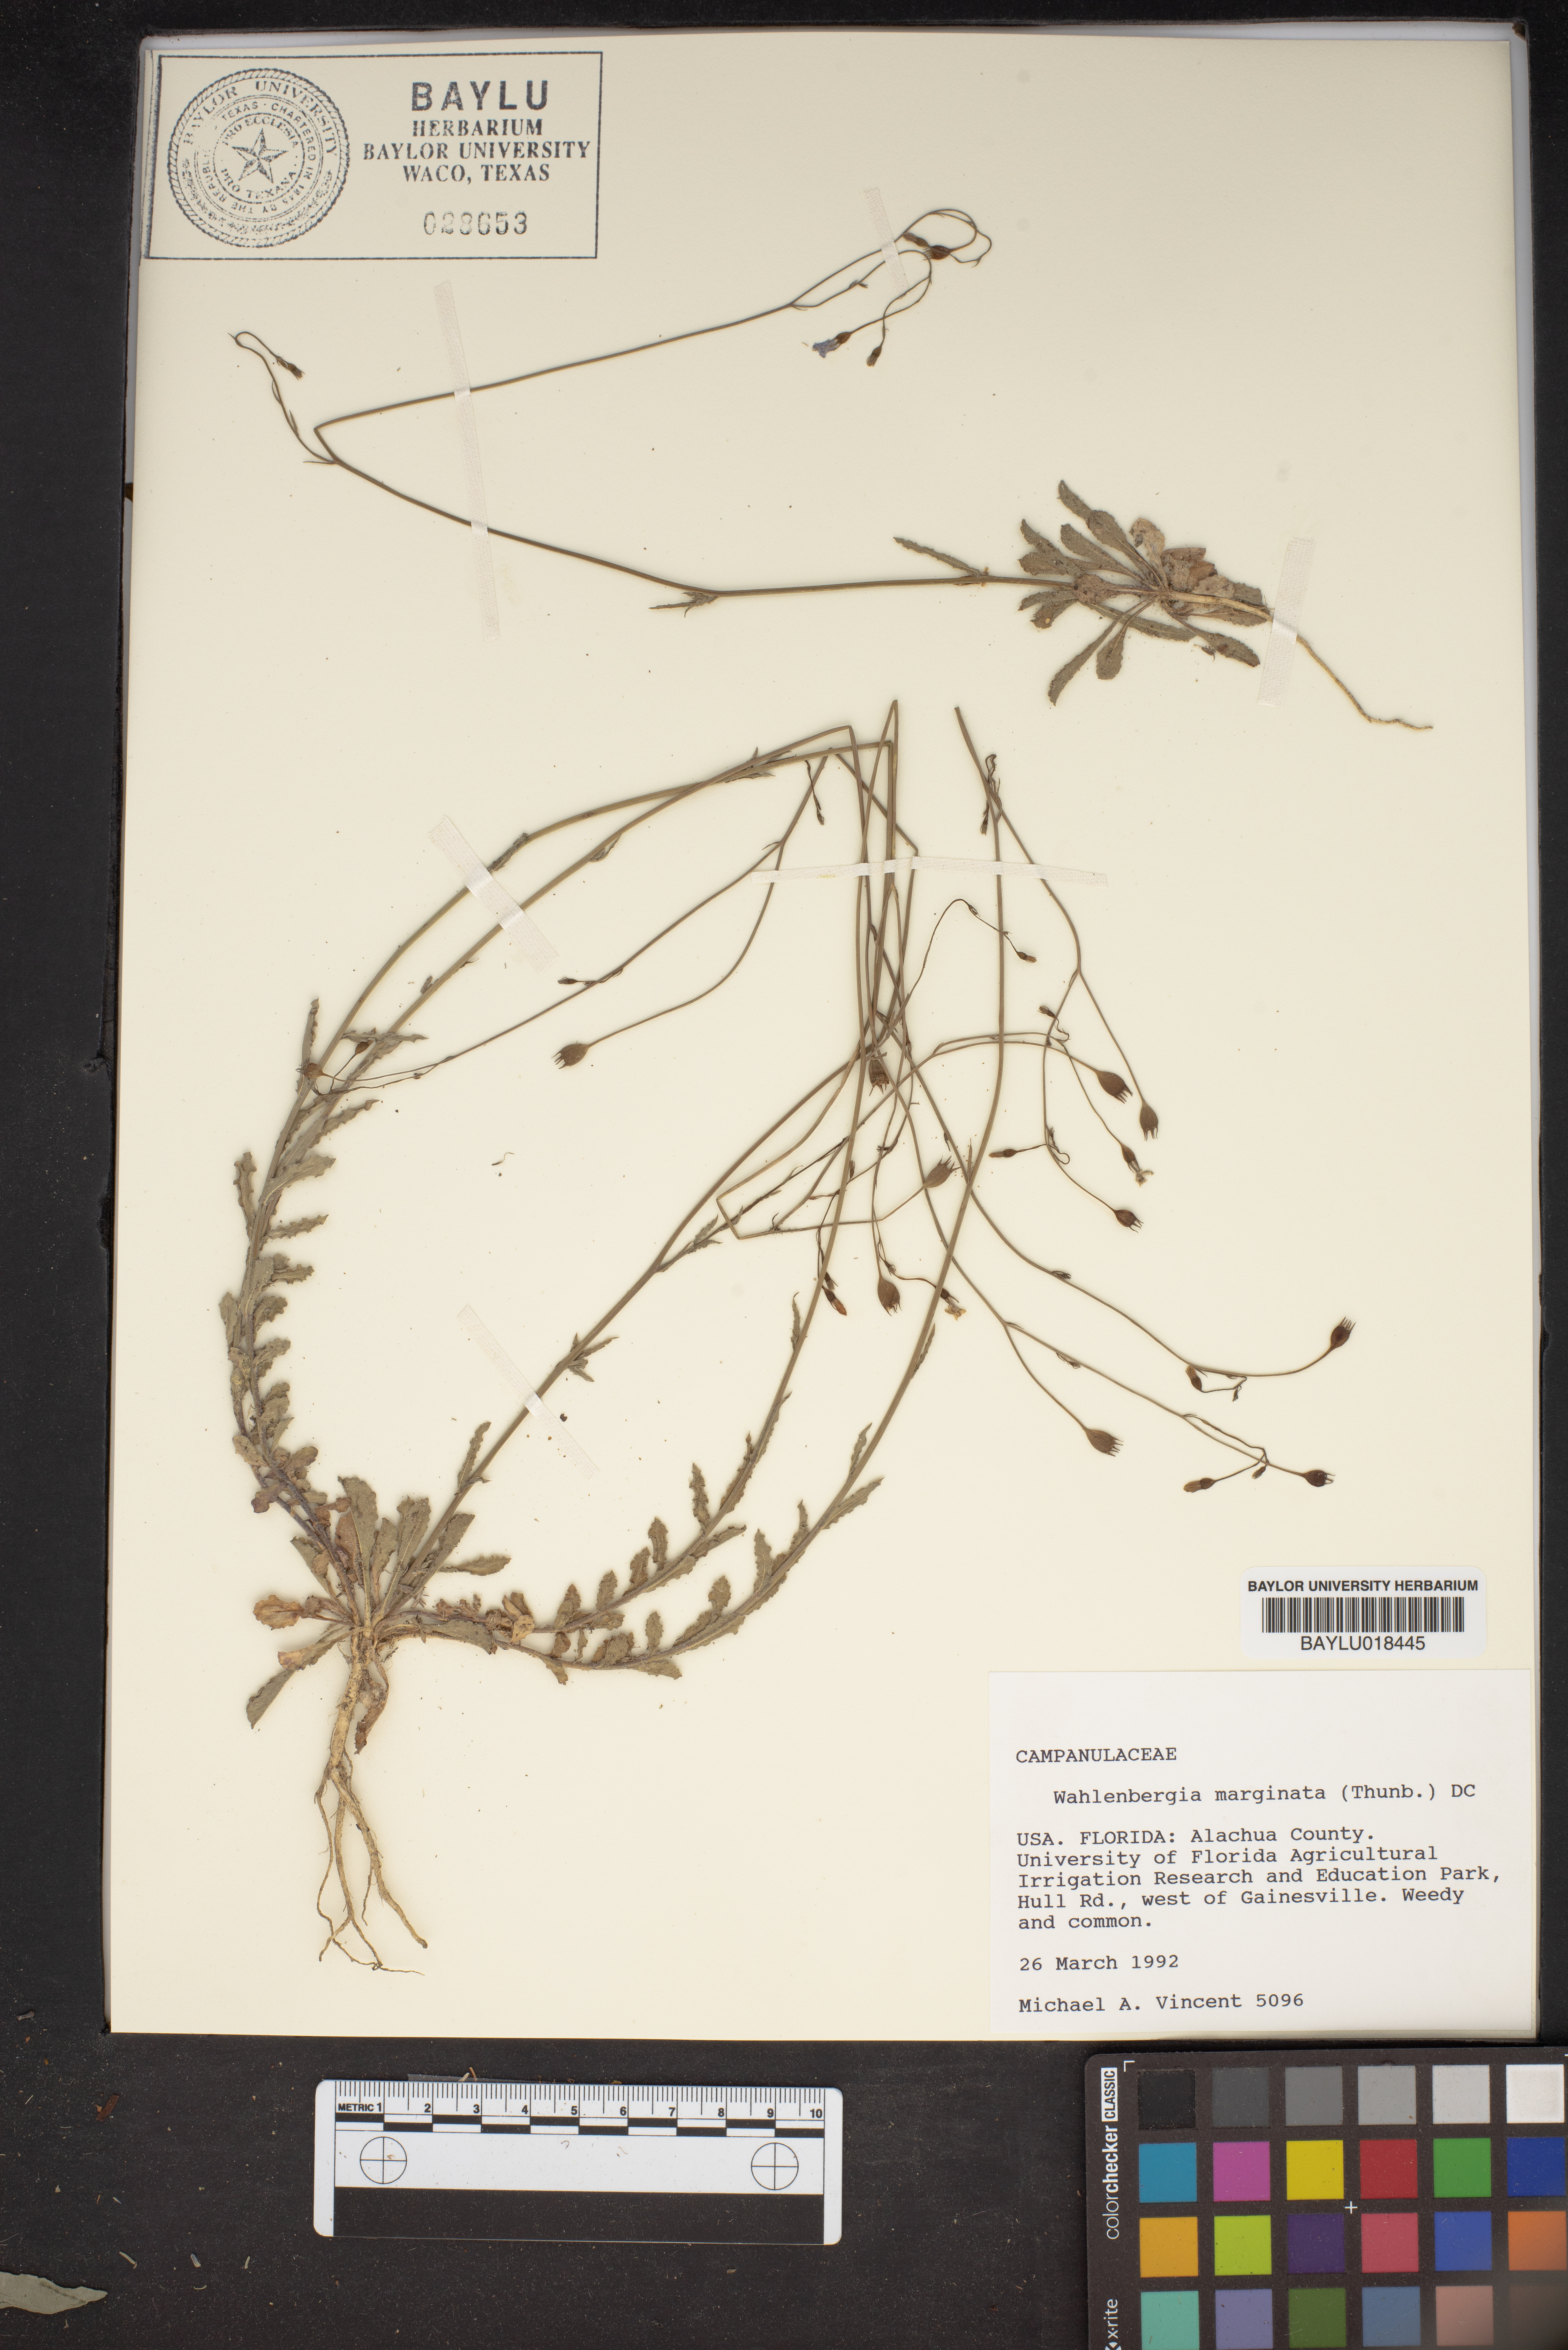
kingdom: Plantae
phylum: Tracheophyta
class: Magnoliopsida
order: Asterales
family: Campanulaceae
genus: Wahlenbergia
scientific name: Wahlenbergia marginata
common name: Southern rockbell
